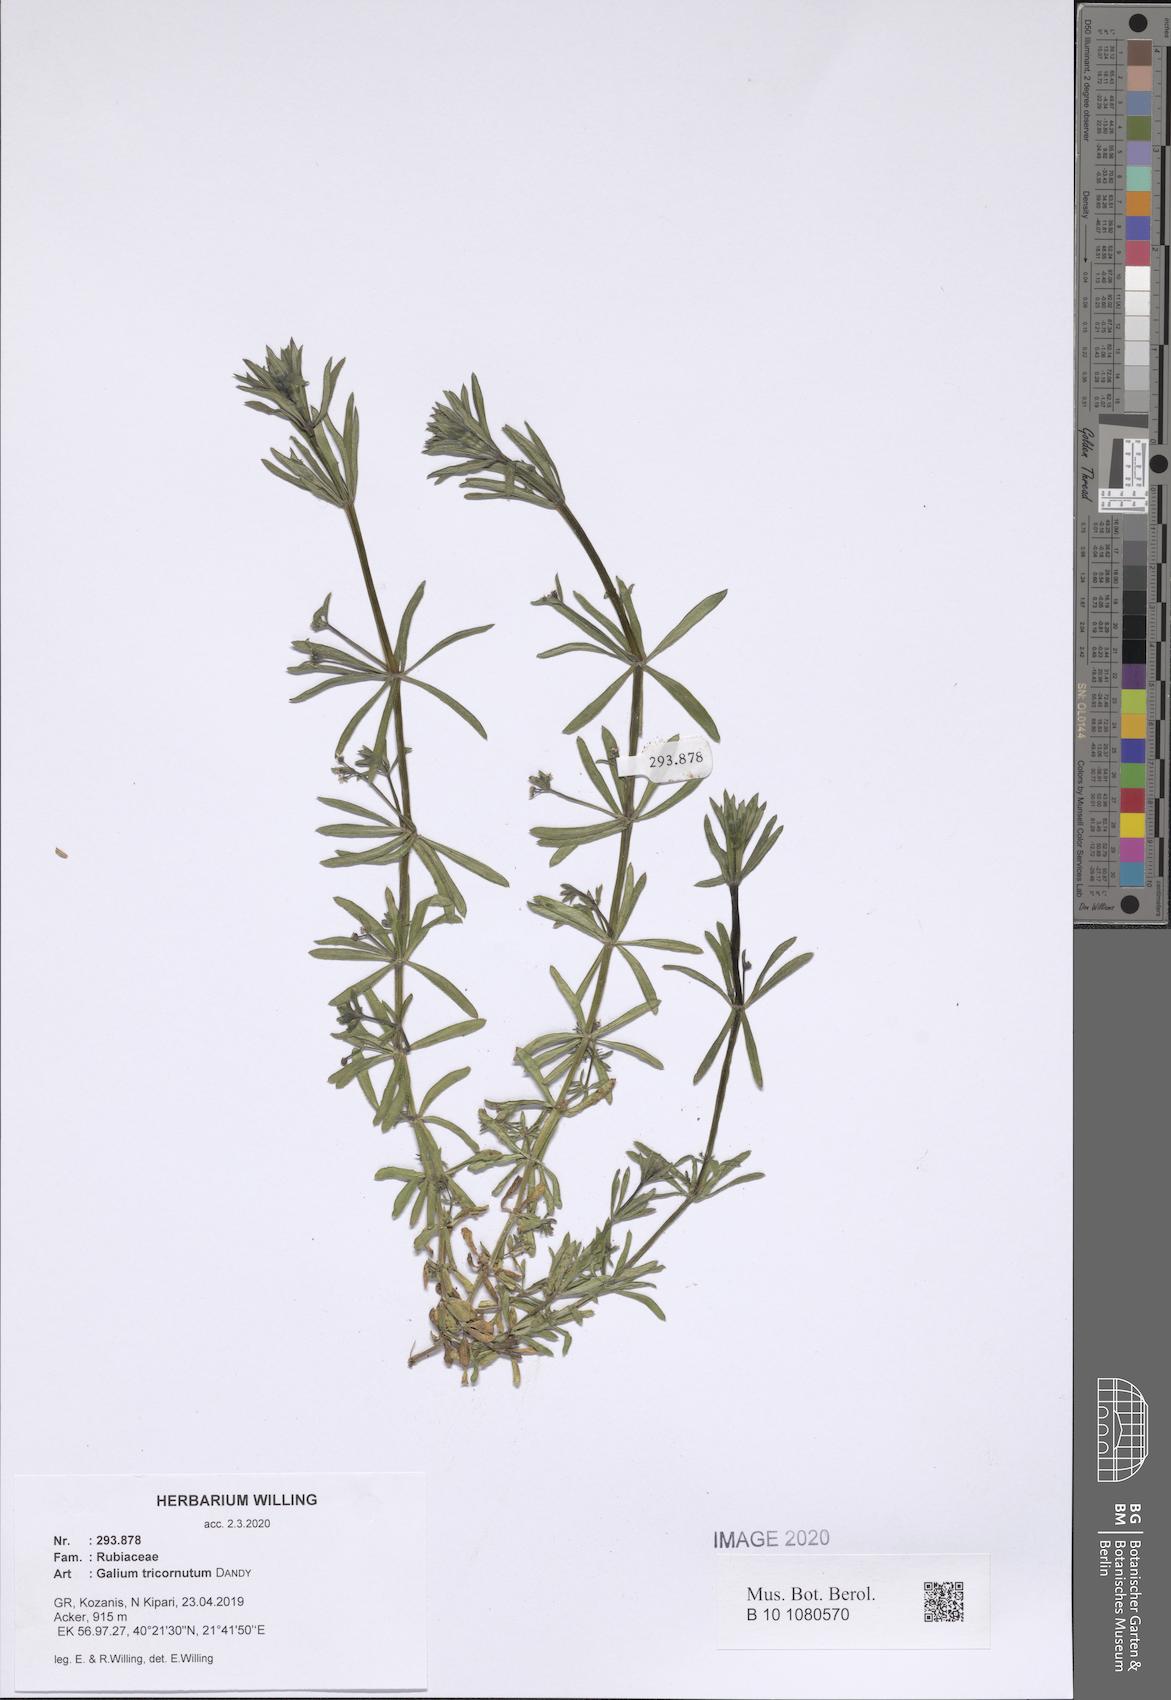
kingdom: Plantae
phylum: Tracheophyta
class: Magnoliopsida
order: Gentianales
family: Rubiaceae
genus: Galium
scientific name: Galium tricornutum
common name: Corn cleavers
